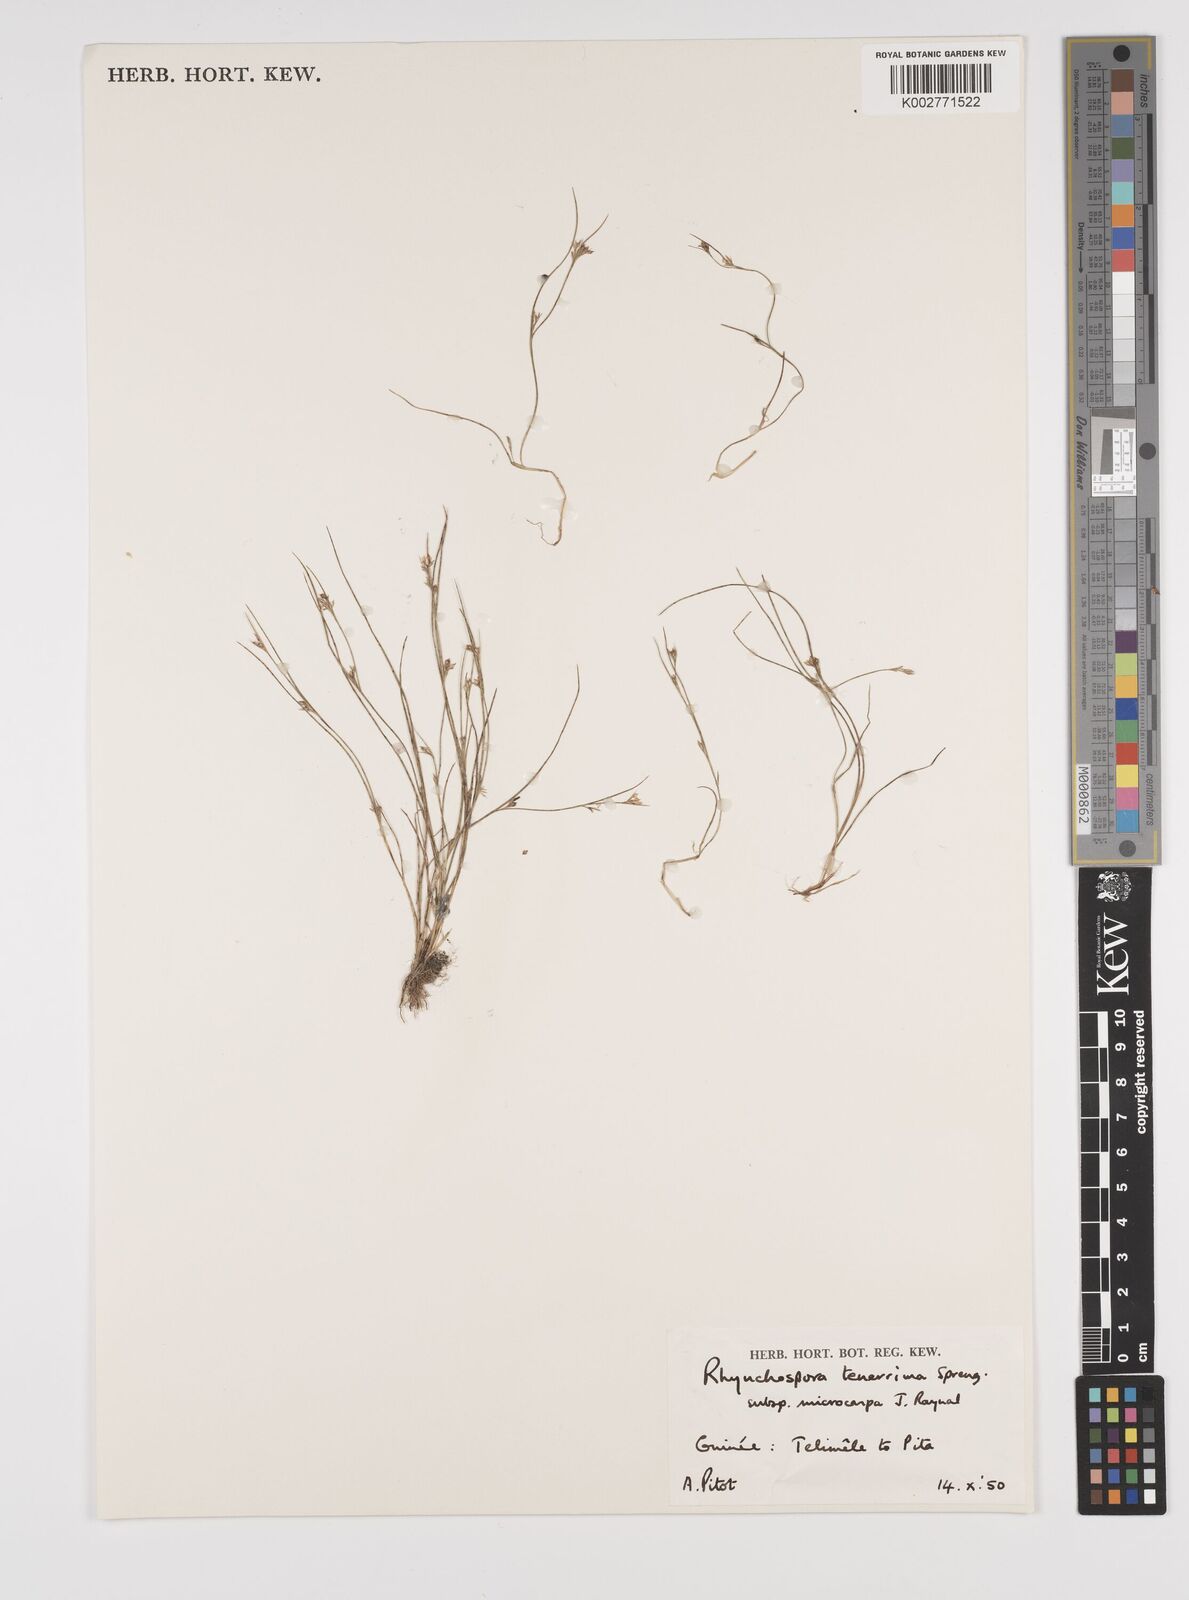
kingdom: Plantae
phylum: Tracheophyta
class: Liliopsida
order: Poales
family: Cyperaceae
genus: Rhynchospora
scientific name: Rhynchospora tenerrima
